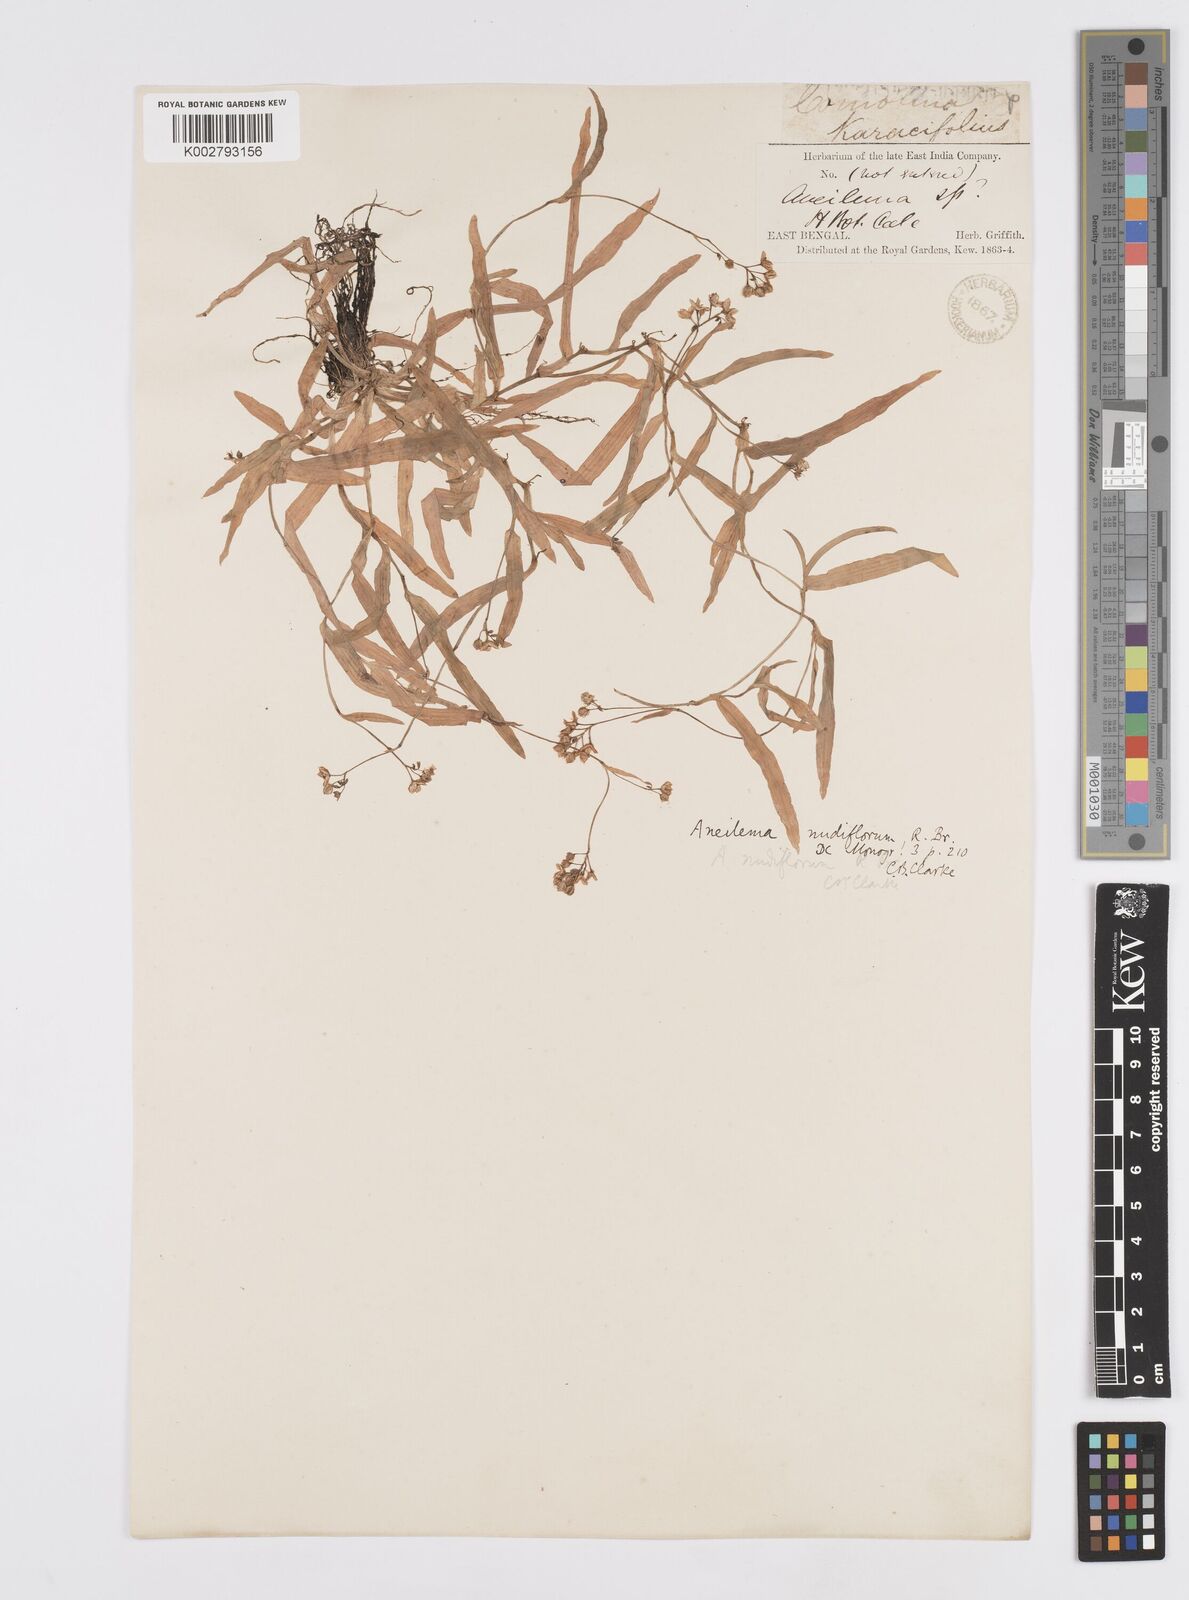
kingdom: Plantae
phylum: Tracheophyta
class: Liliopsida
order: Commelinales
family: Commelinaceae
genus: Murdannia
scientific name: Murdannia
